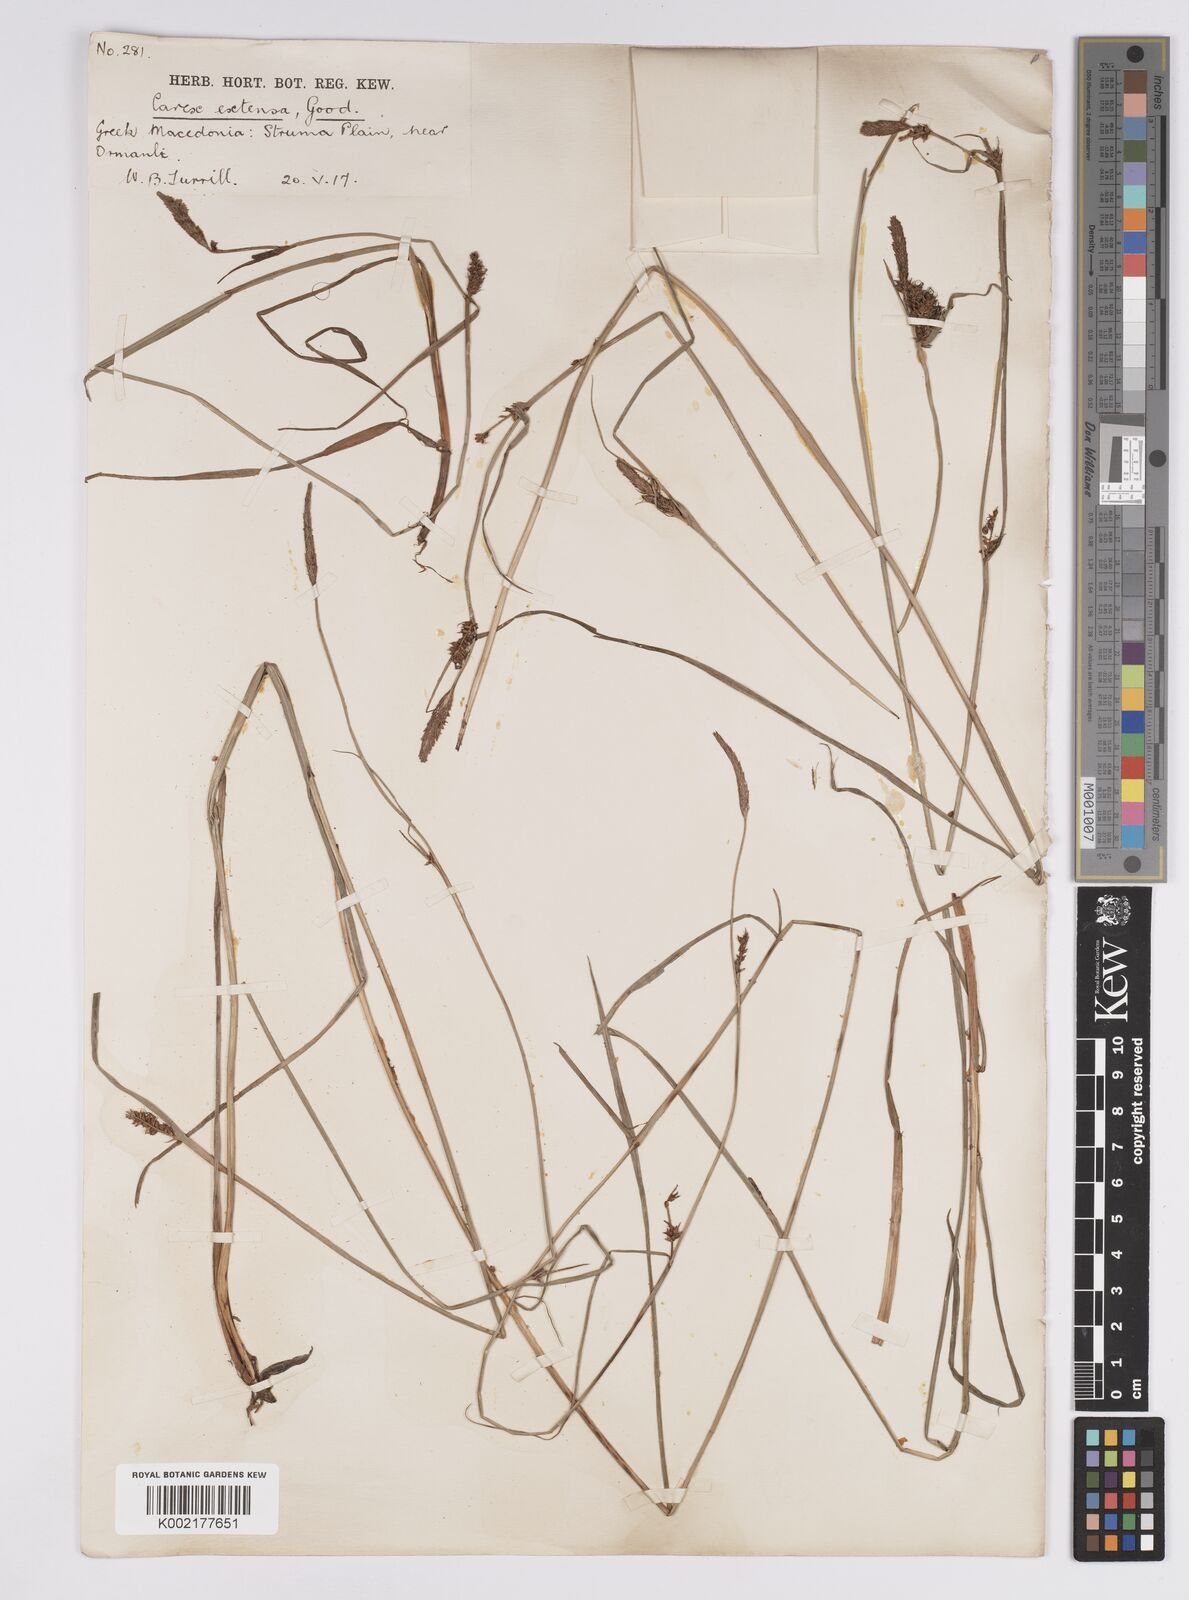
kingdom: Plantae
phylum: Tracheophyta
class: Liliopsida
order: Poales
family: Cyperaceae
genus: Carex
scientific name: Carex extensa
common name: Long-bracted sedge
